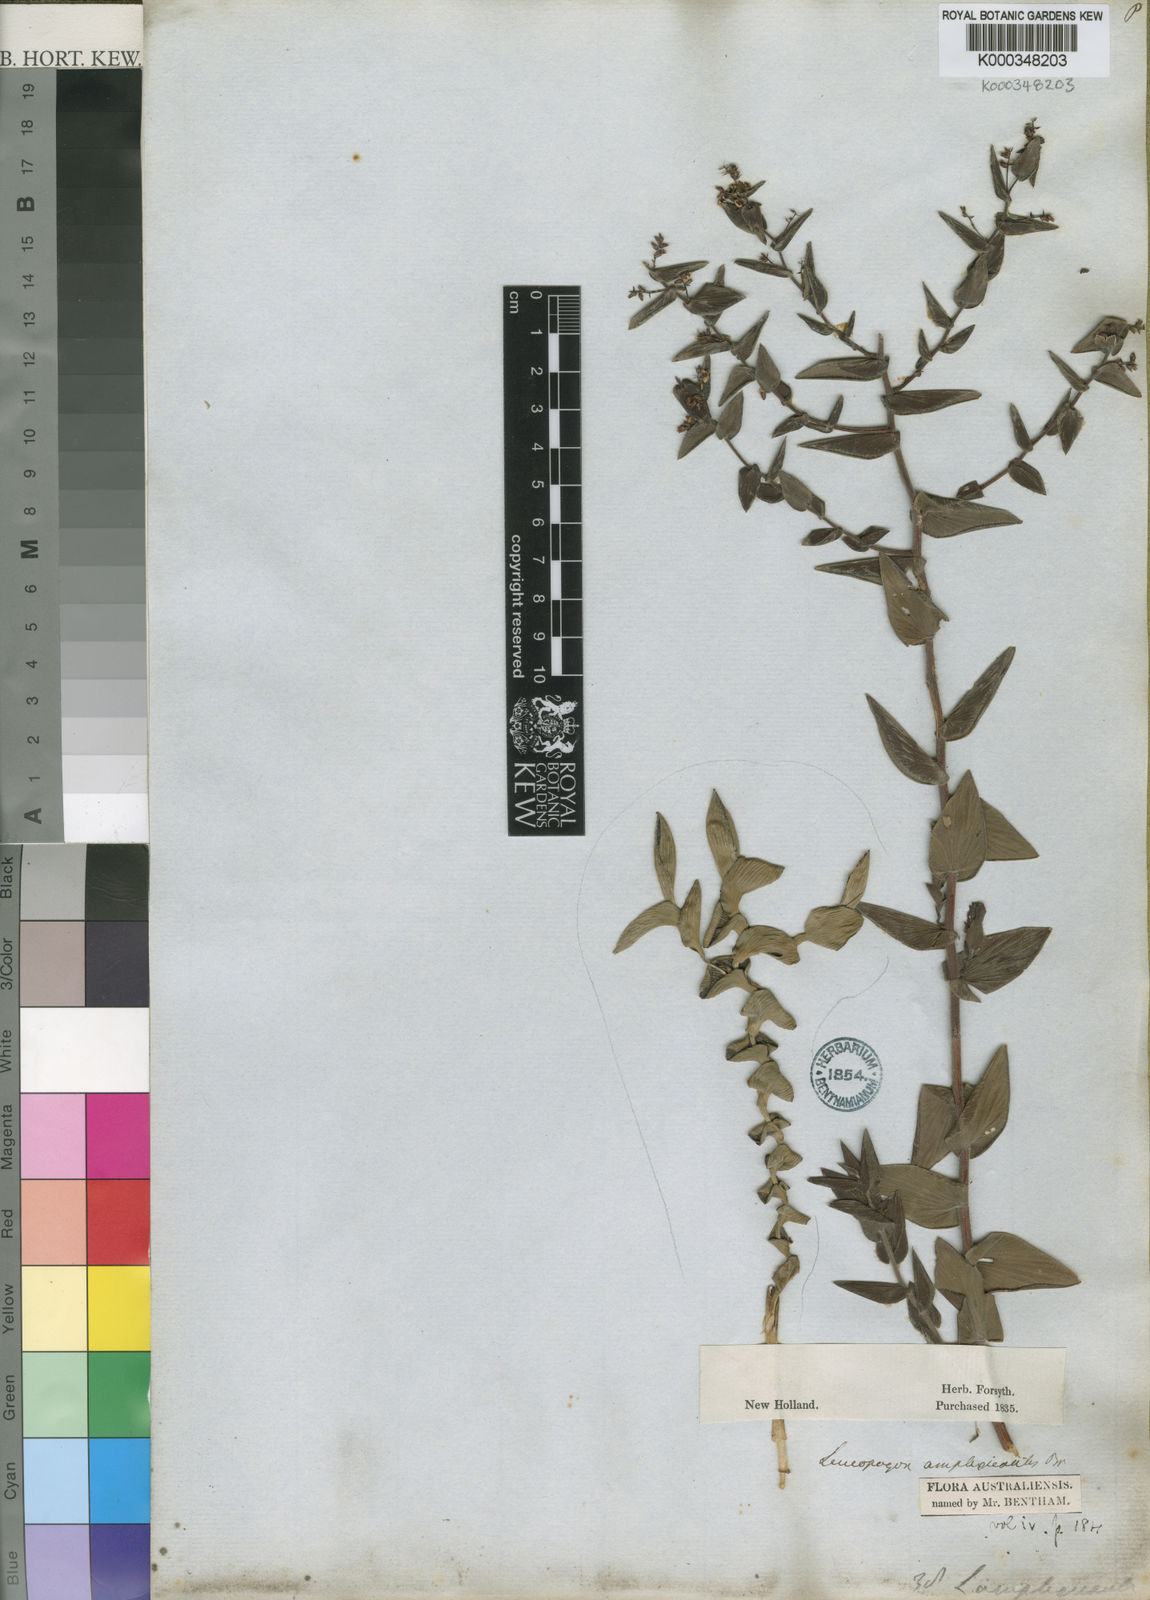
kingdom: Plantae
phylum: Tracheophyta
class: Magnoliopsida
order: Ericales
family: Ericaceae
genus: Leucopogon
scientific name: Leucopogon amplexicaulis
